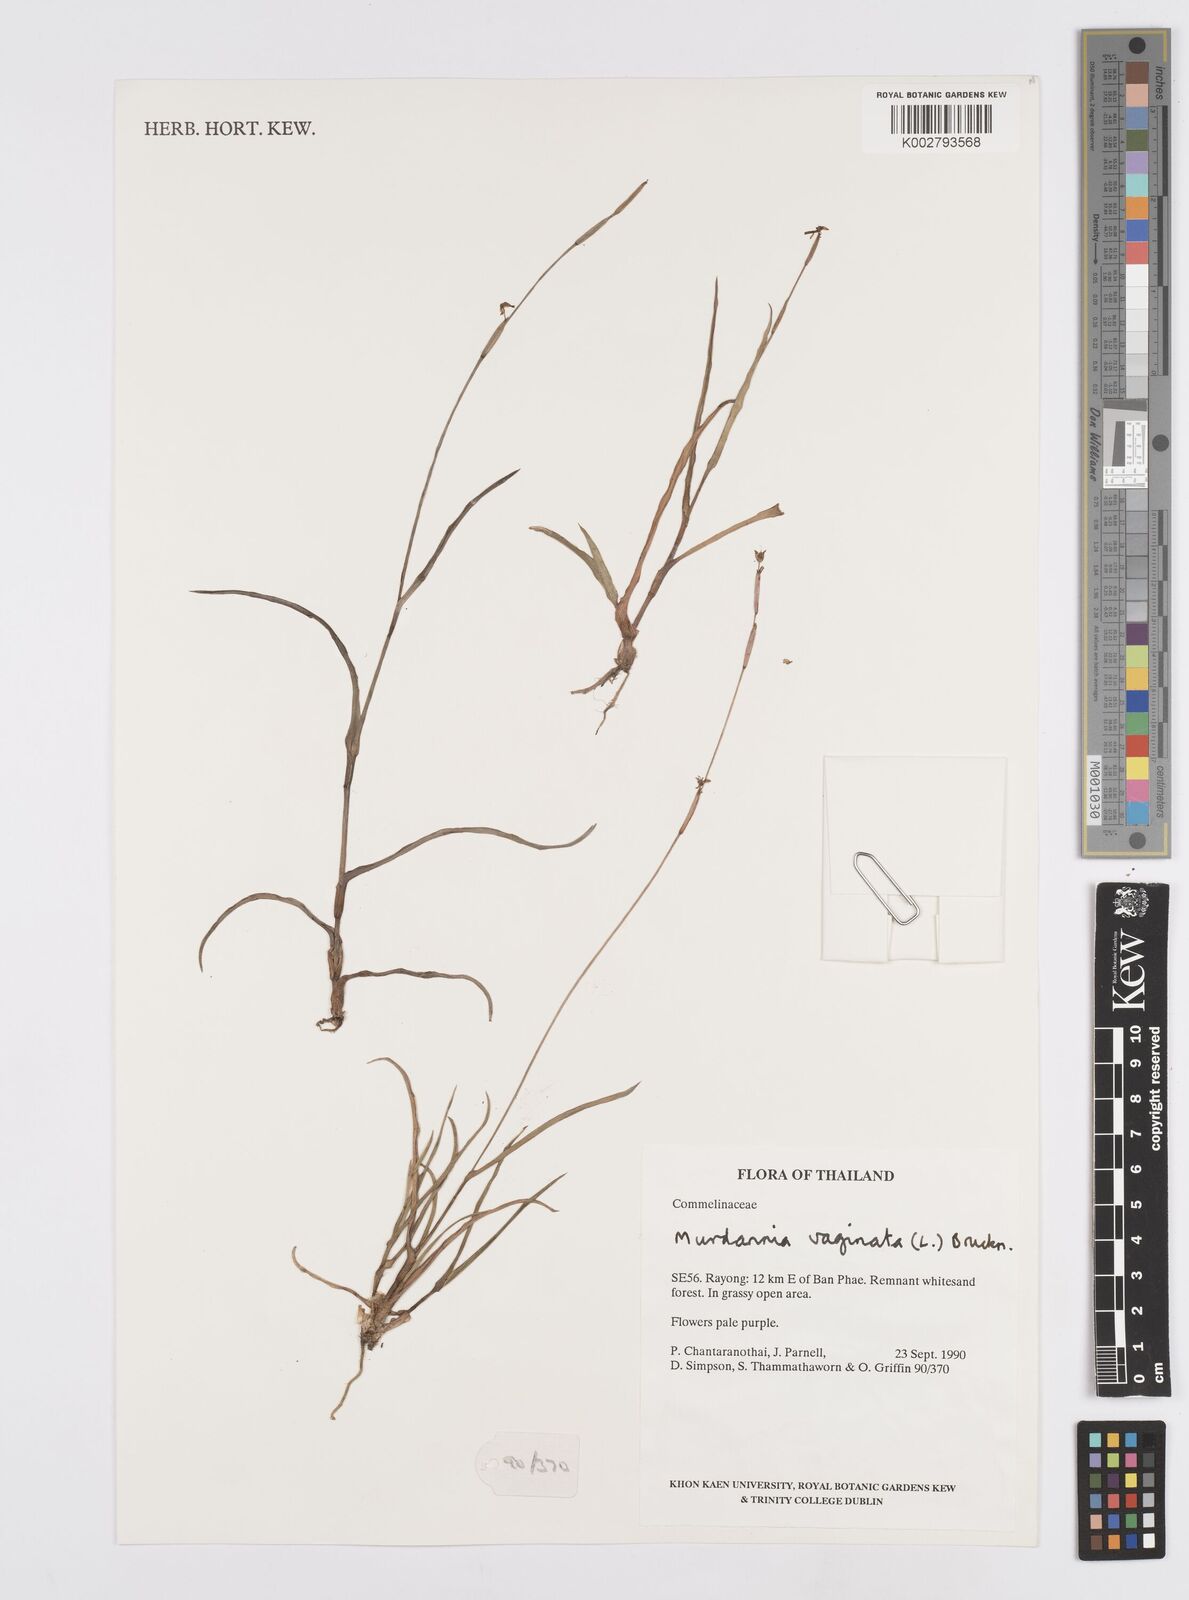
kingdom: Plantae
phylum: Tracheophyta
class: Liliopsida
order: Commelinales
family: Commelinaceae
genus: Murdannia
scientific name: Murdannia vaginata
